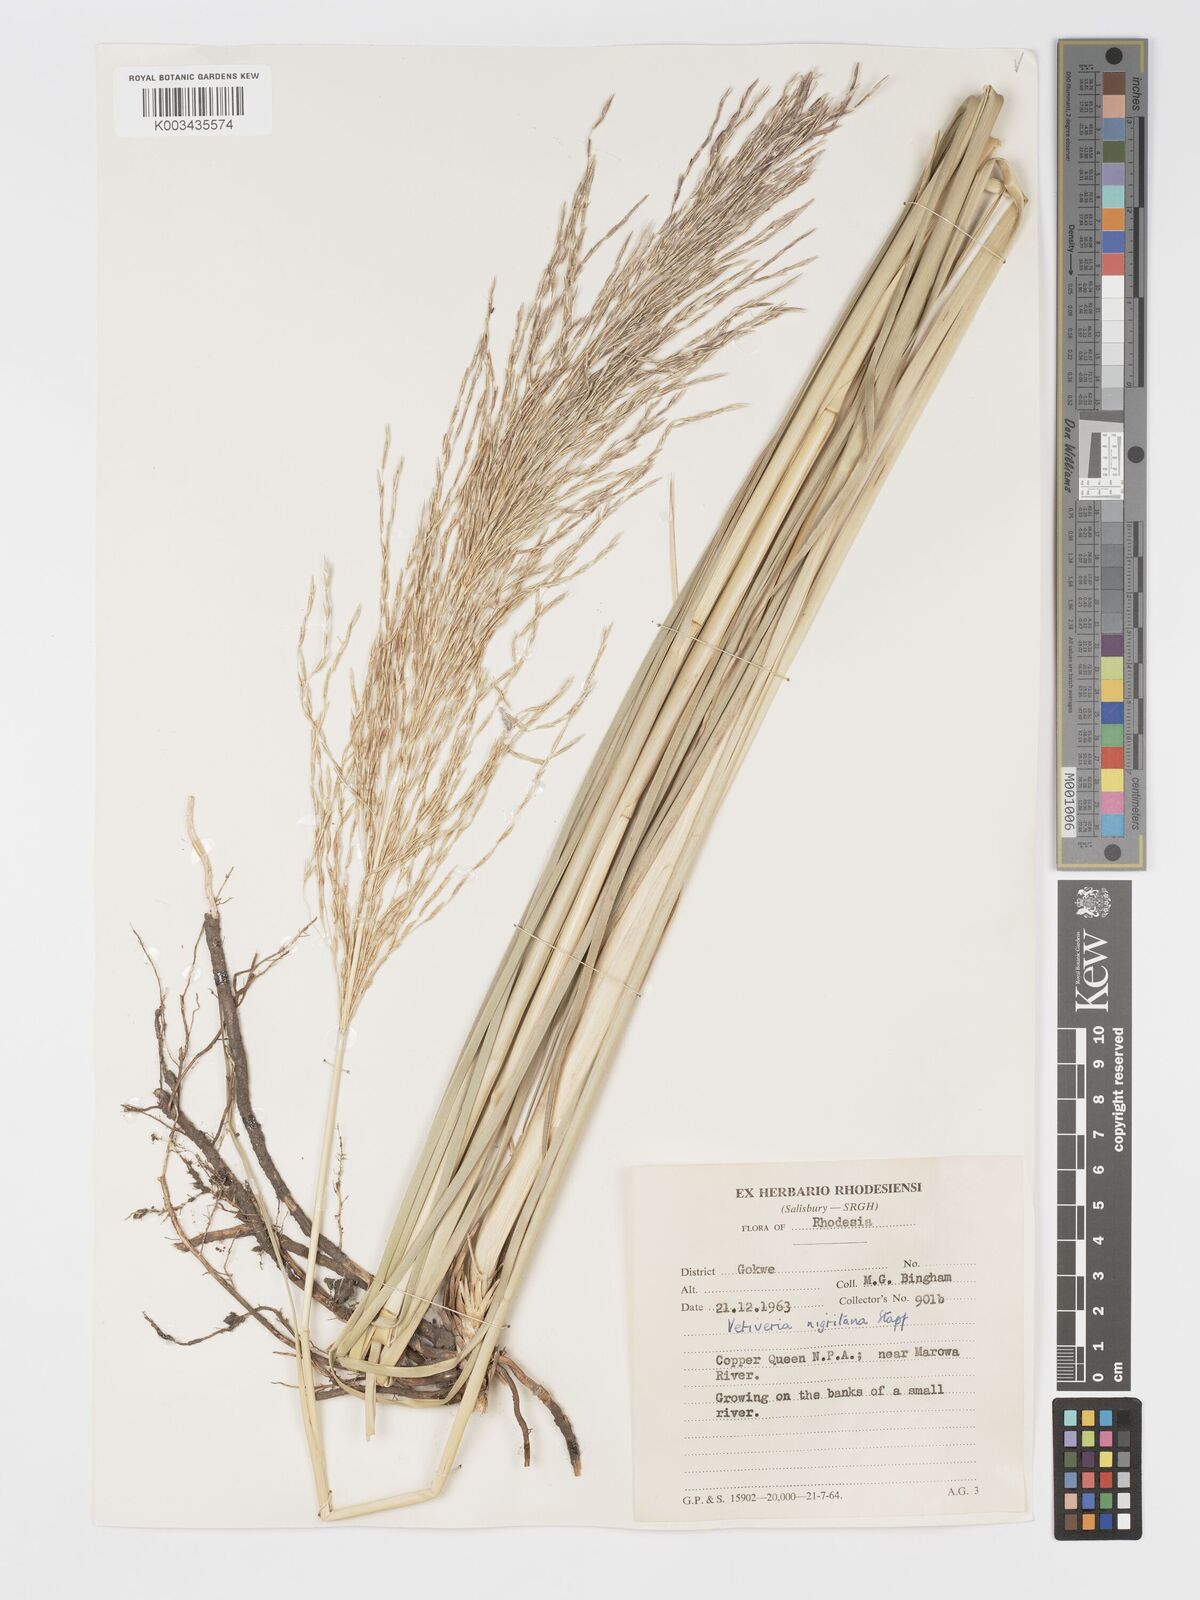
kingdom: Plantae
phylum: Tracheophyta
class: Liliopsida
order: Poales
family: Poaceae
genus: Chrysopogon
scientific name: Chrysopogon nigritanus
